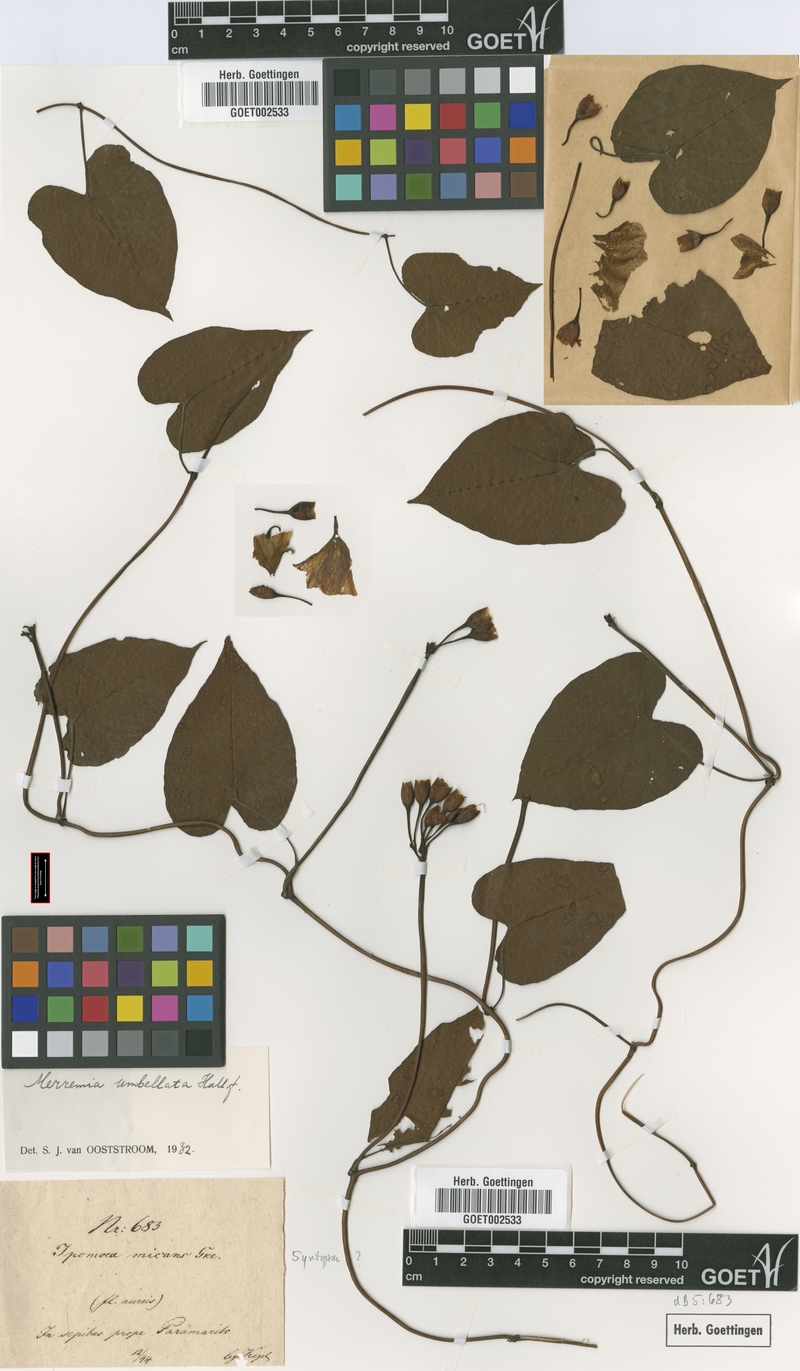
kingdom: Plantae
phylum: Tracheophyta
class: Magnoliopsida
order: Solanales
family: Convolvulaceae
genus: Camonea
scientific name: Camonea umbellata
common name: Hogvine
